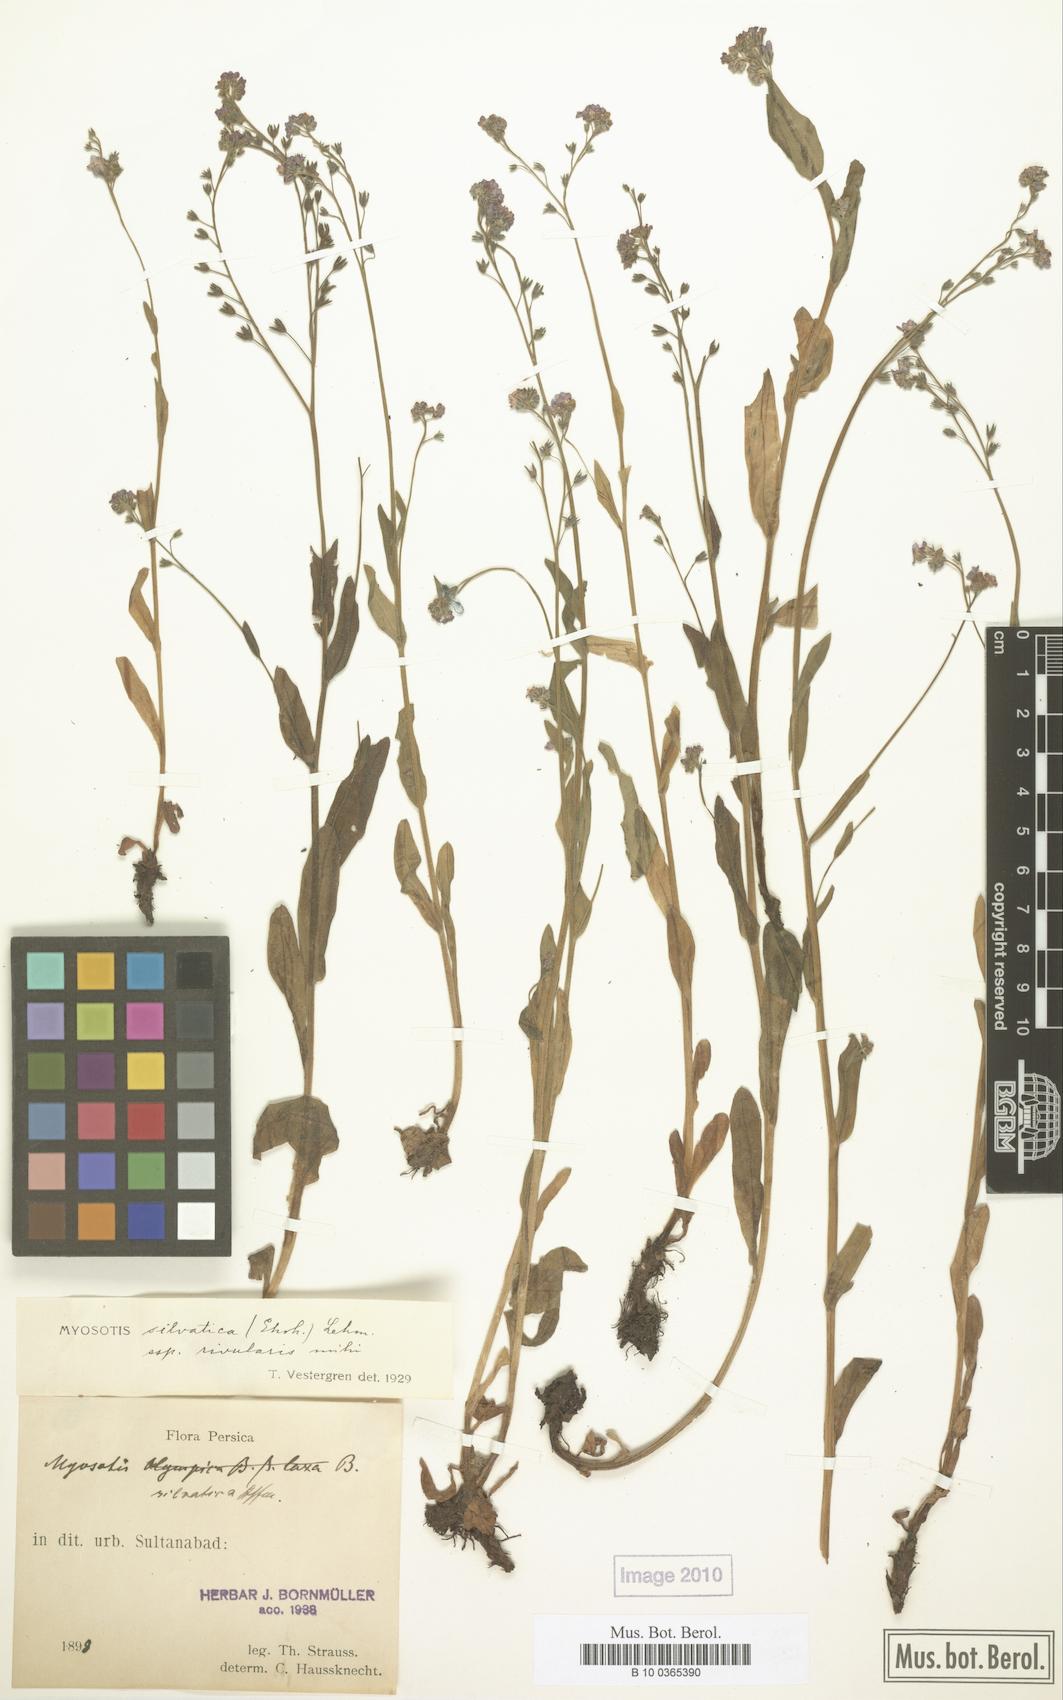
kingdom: Plantae
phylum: Tracheophyta
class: Magnoliopsida
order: Boraginales
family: Boraginaceae
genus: Myosotis
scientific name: Myosotis rivularis
